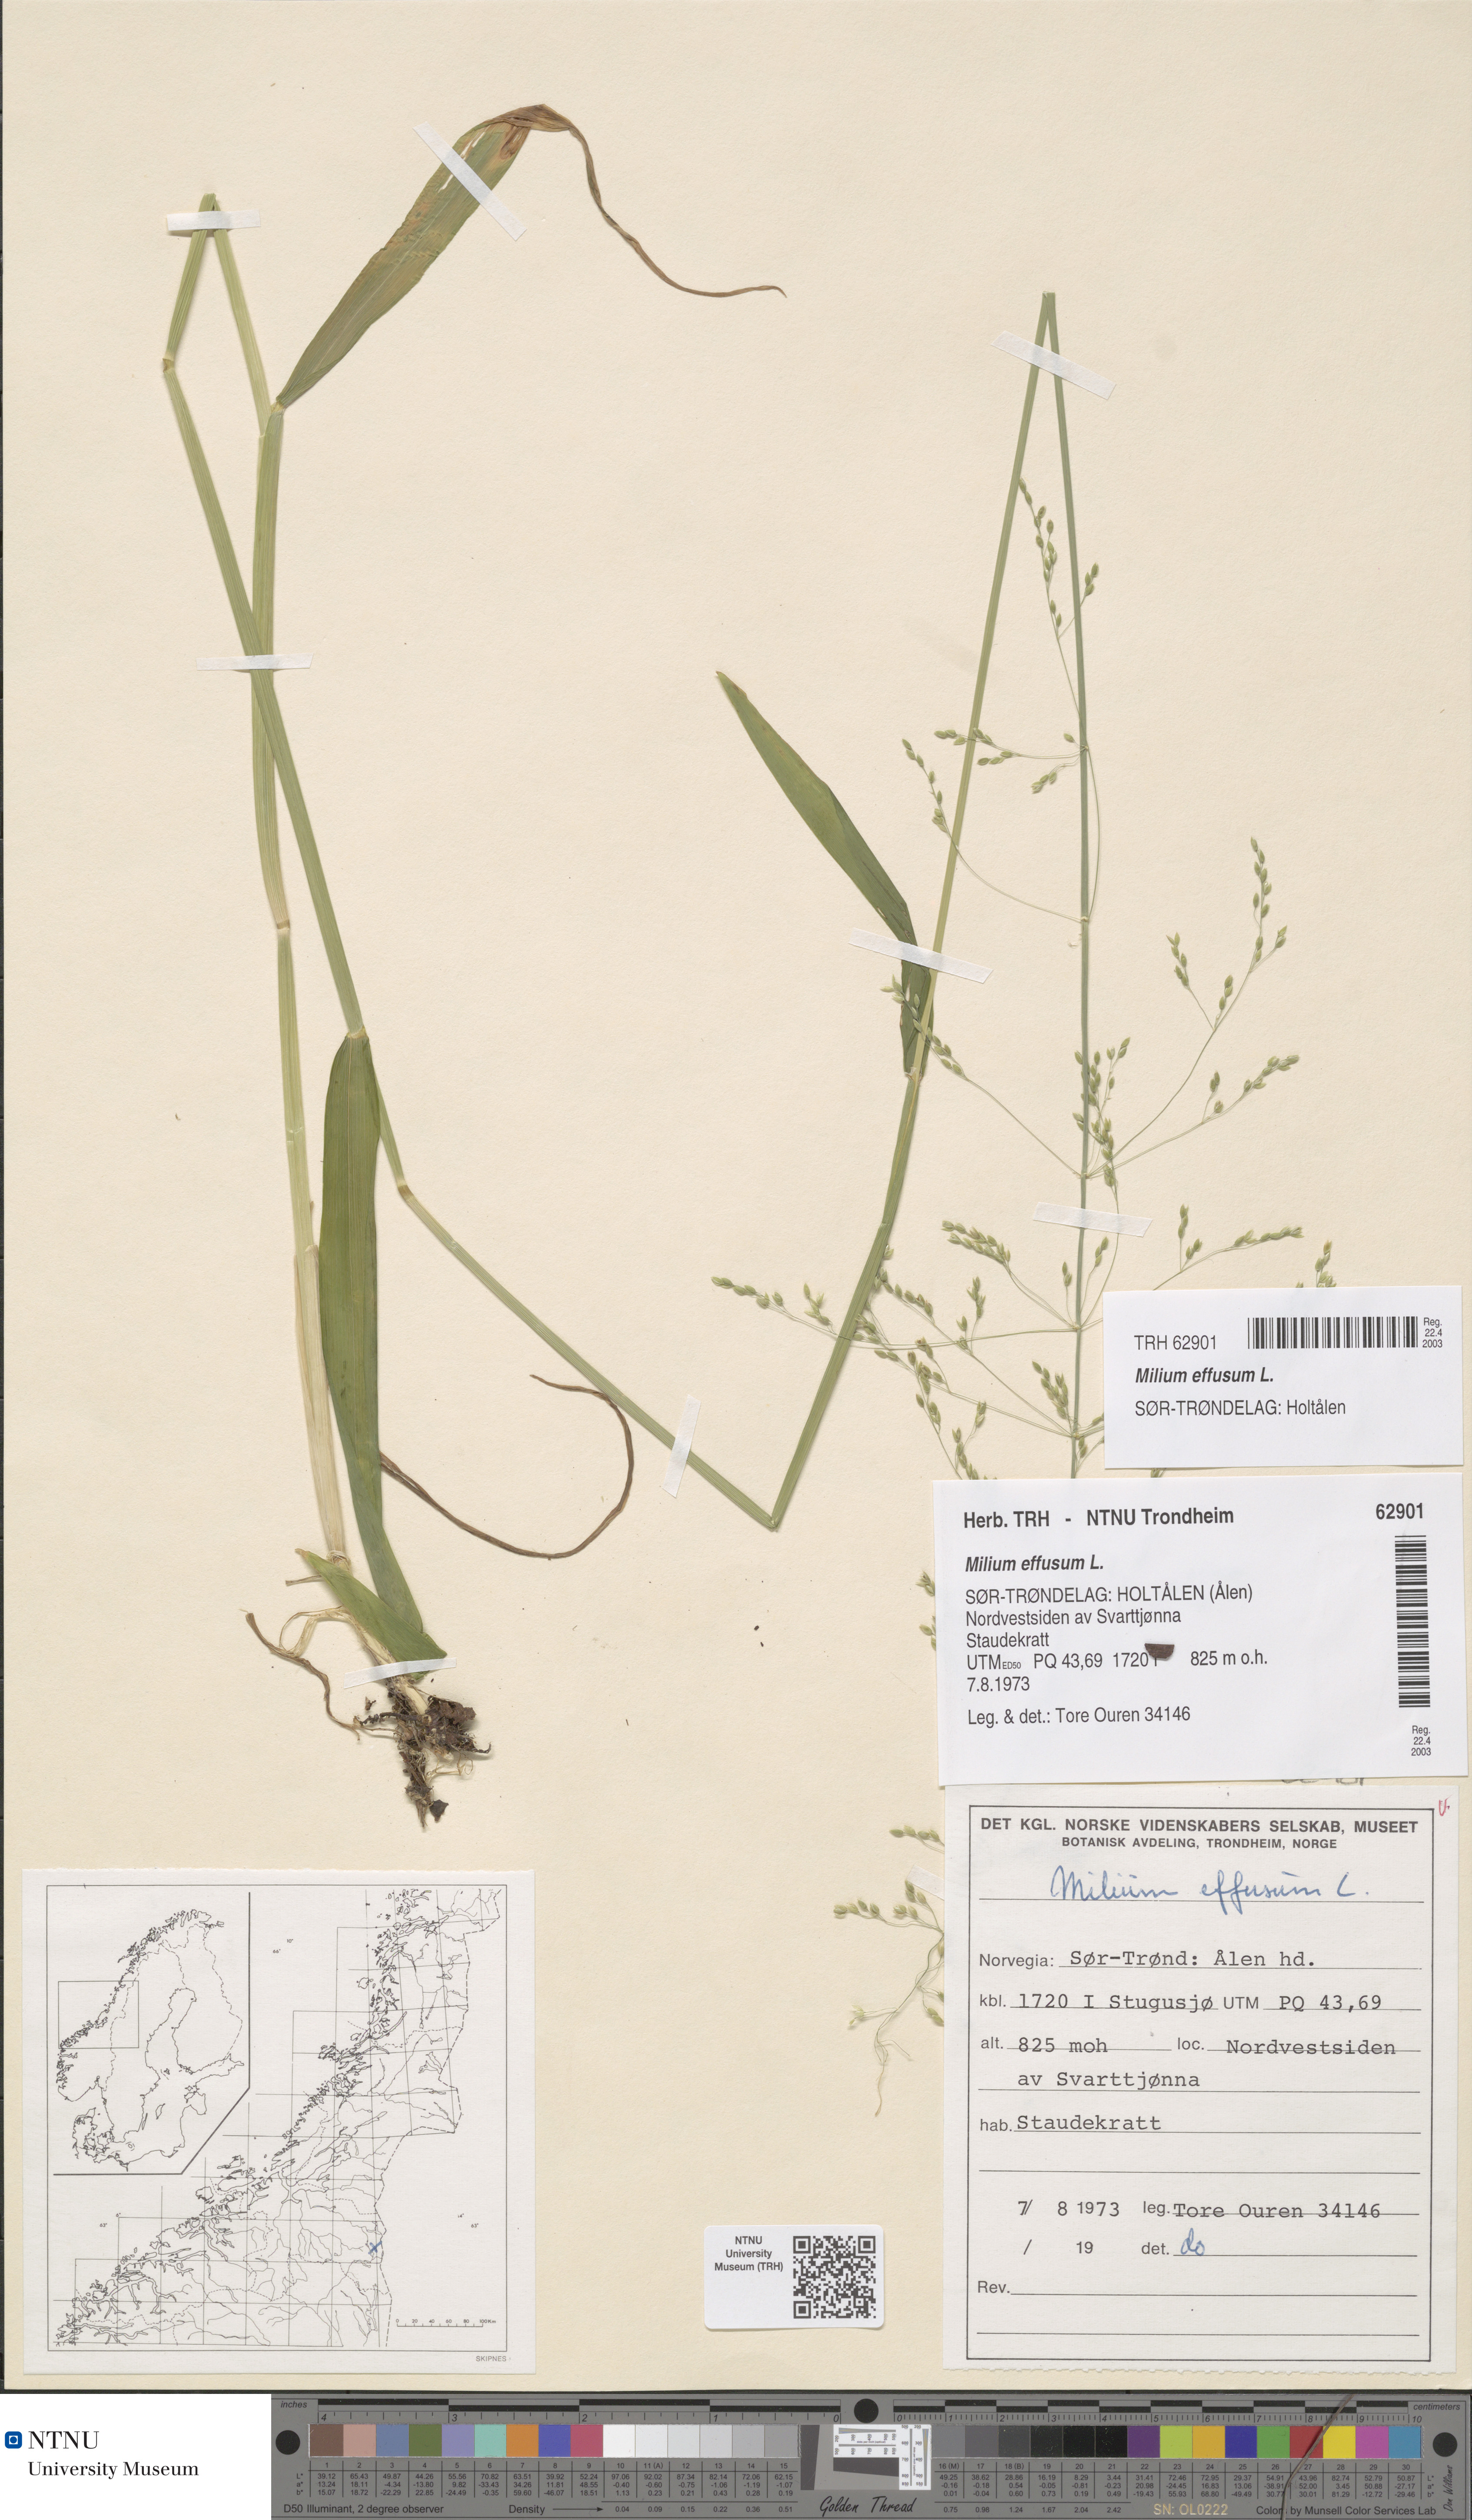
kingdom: Plantae
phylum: Tracheophyta
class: Liliopsida
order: Poales
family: Poaceae
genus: Milium
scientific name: Milium effusum
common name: Wood millet
